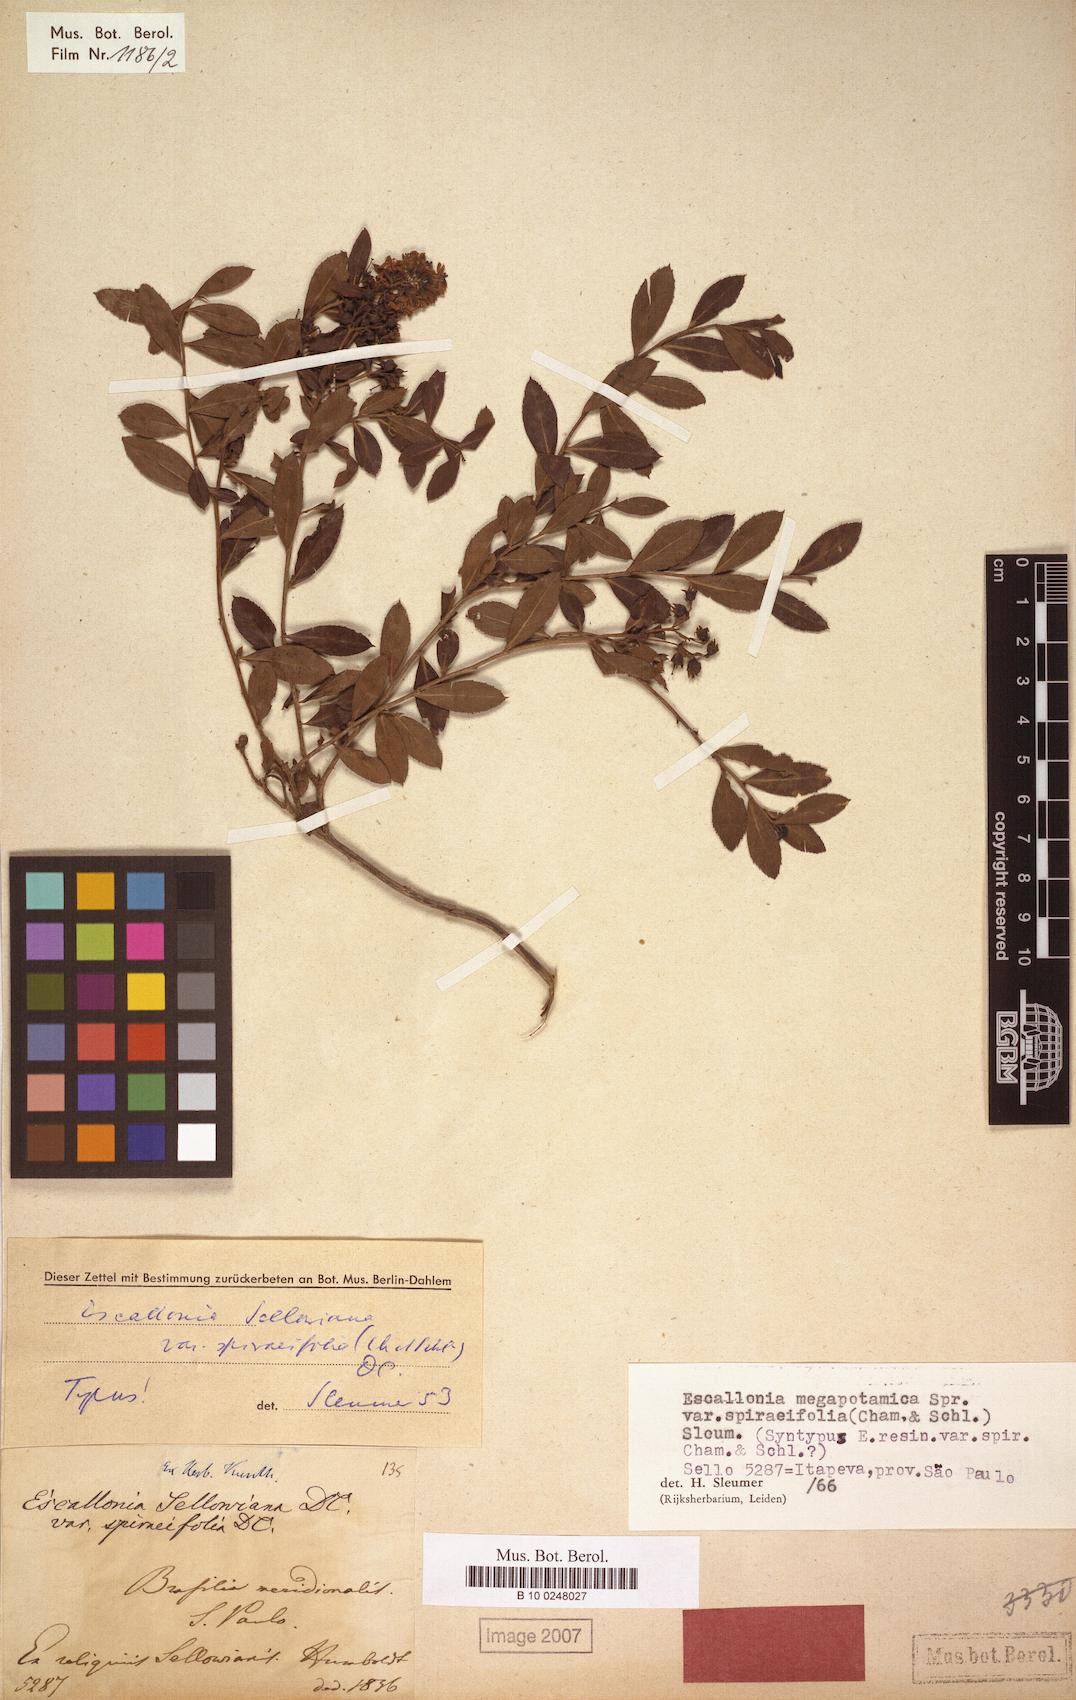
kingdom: Plantae
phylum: Tracheophyta
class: Magnoliopsida
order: Escalloniales
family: Escalloniaceae
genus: Escallonia
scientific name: Escallonia megapotamica
